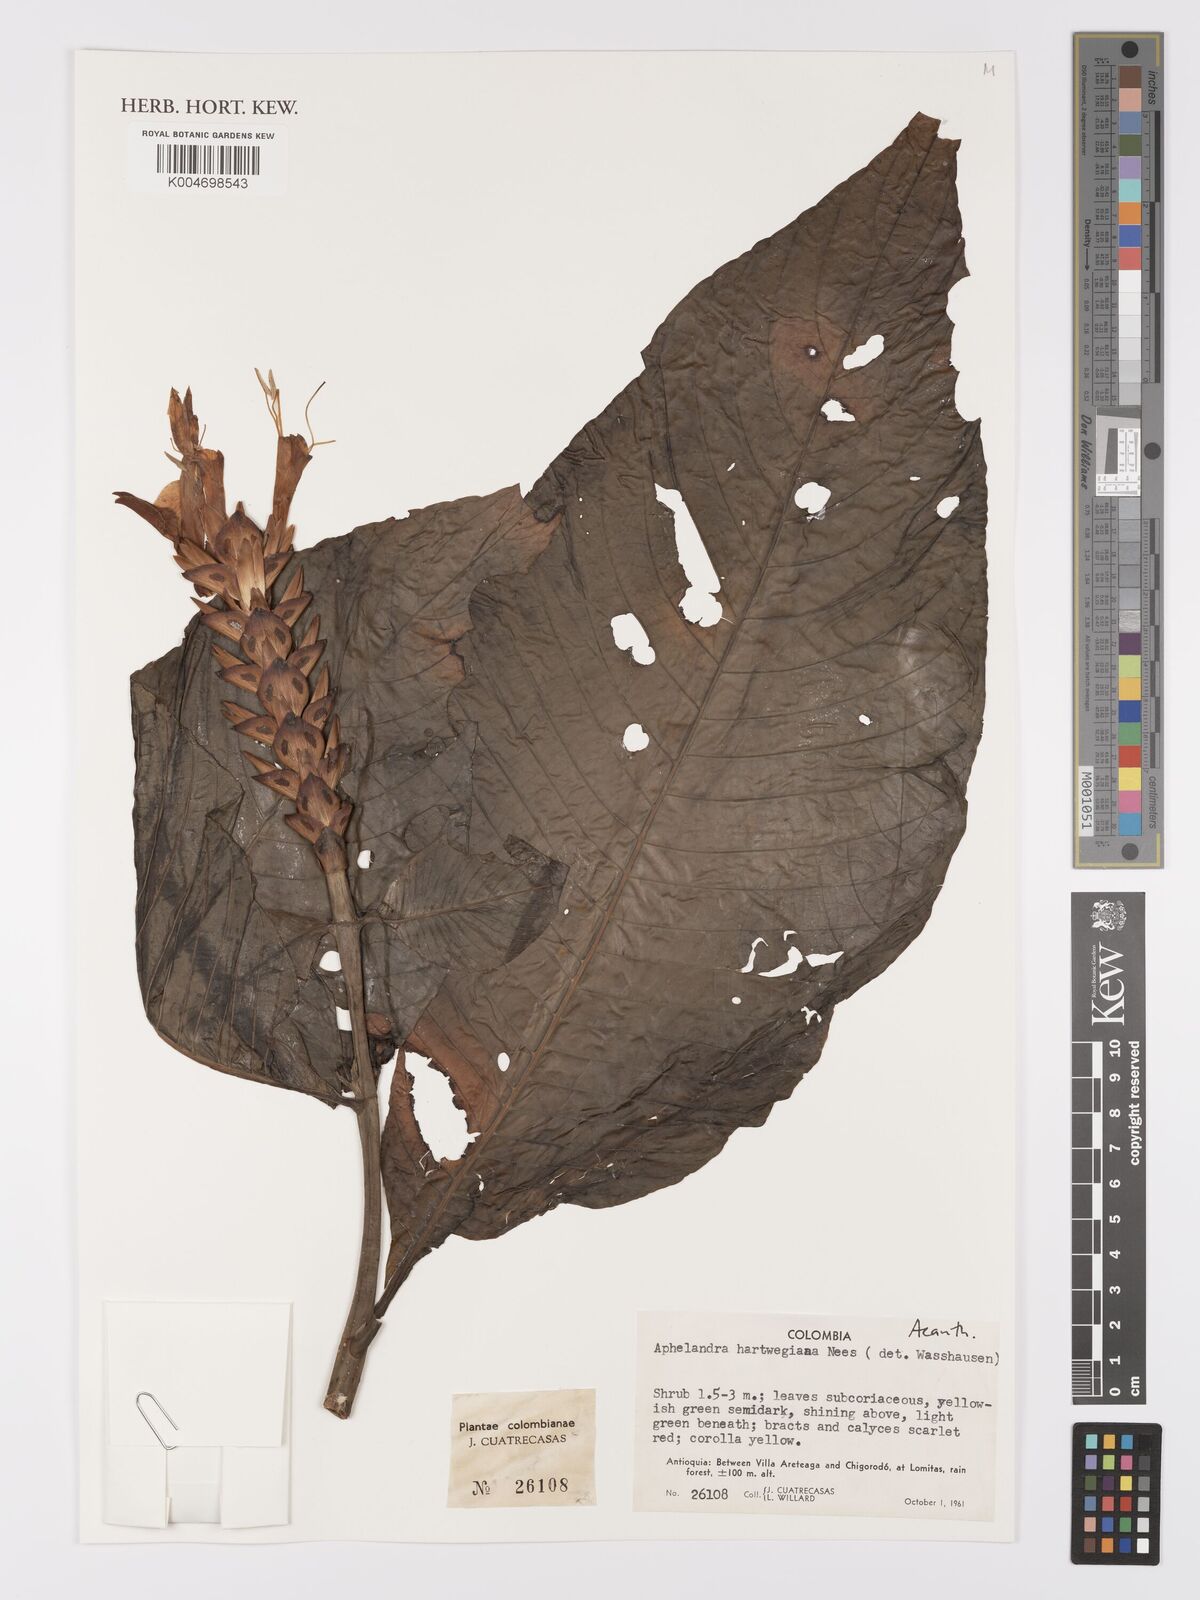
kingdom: Plantae
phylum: Tracheophyta
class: Magnoliopsida
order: Lamiales
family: Acanthaceae
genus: Aphelandra
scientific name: Aphelandra hartwegiana
